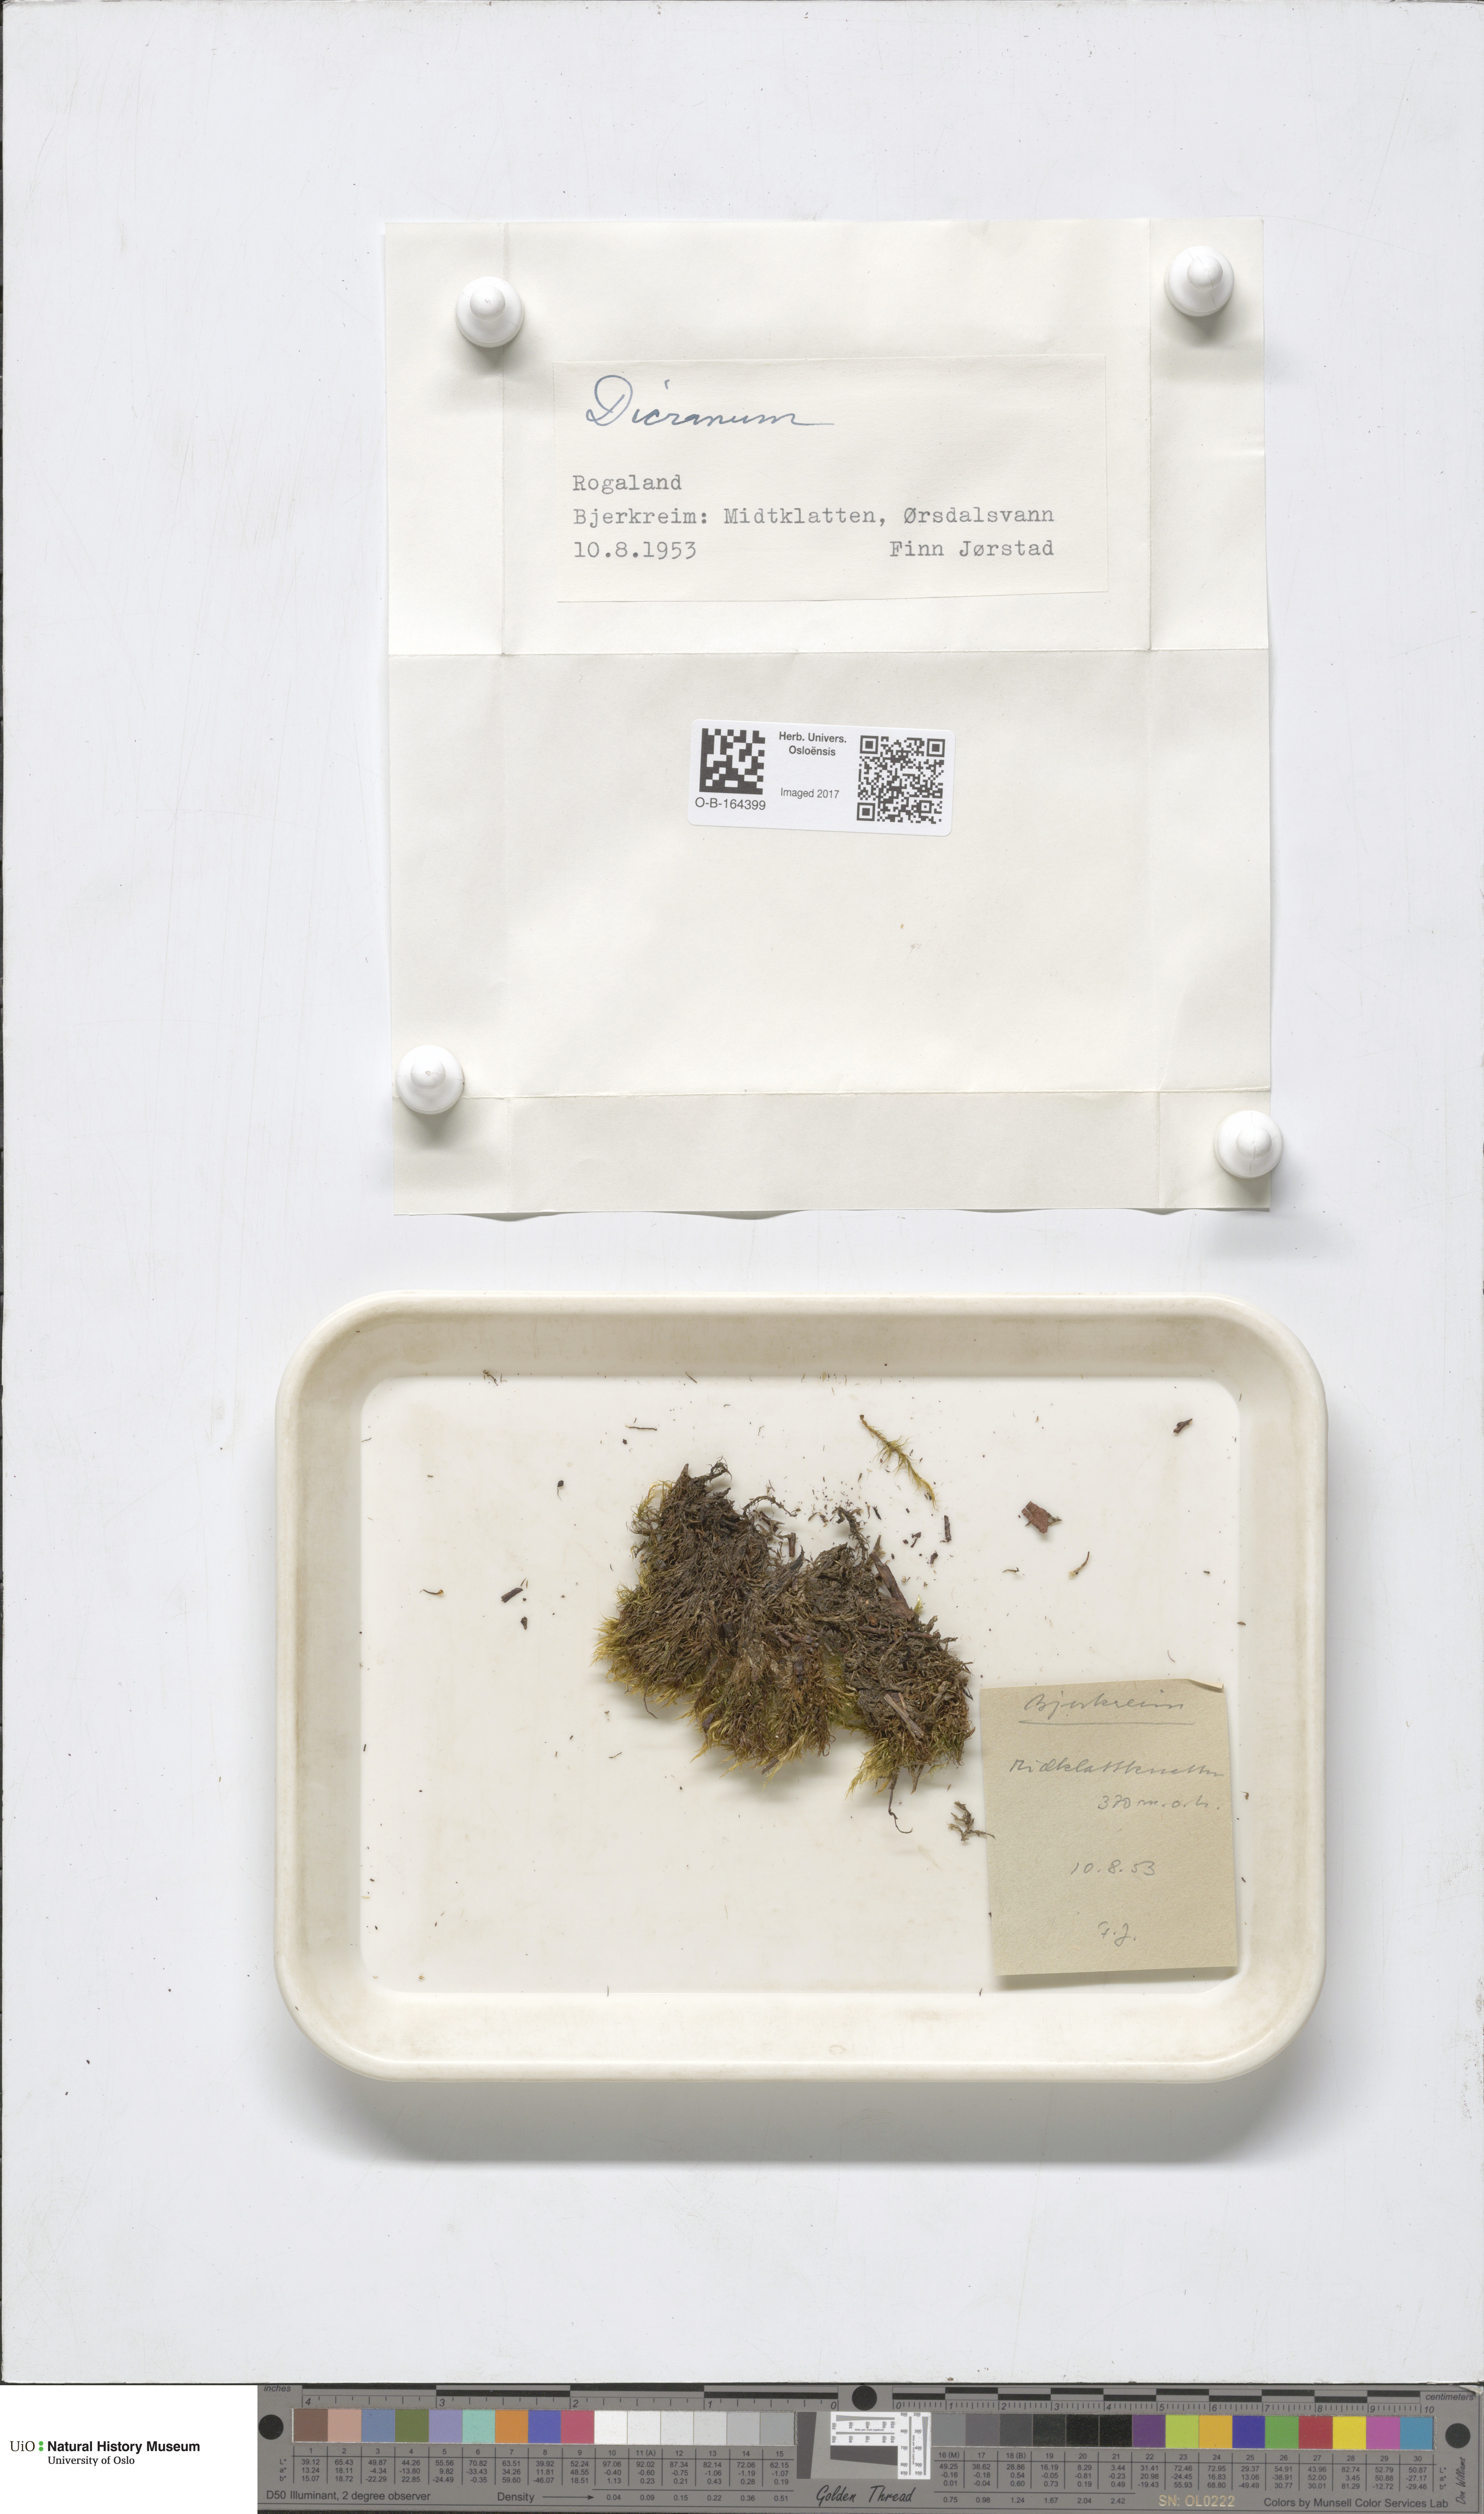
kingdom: Plantae
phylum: Bryophyta
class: Bryopsida
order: Dicranales
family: Dicranaceae
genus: Dicranum
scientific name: Dicranum
